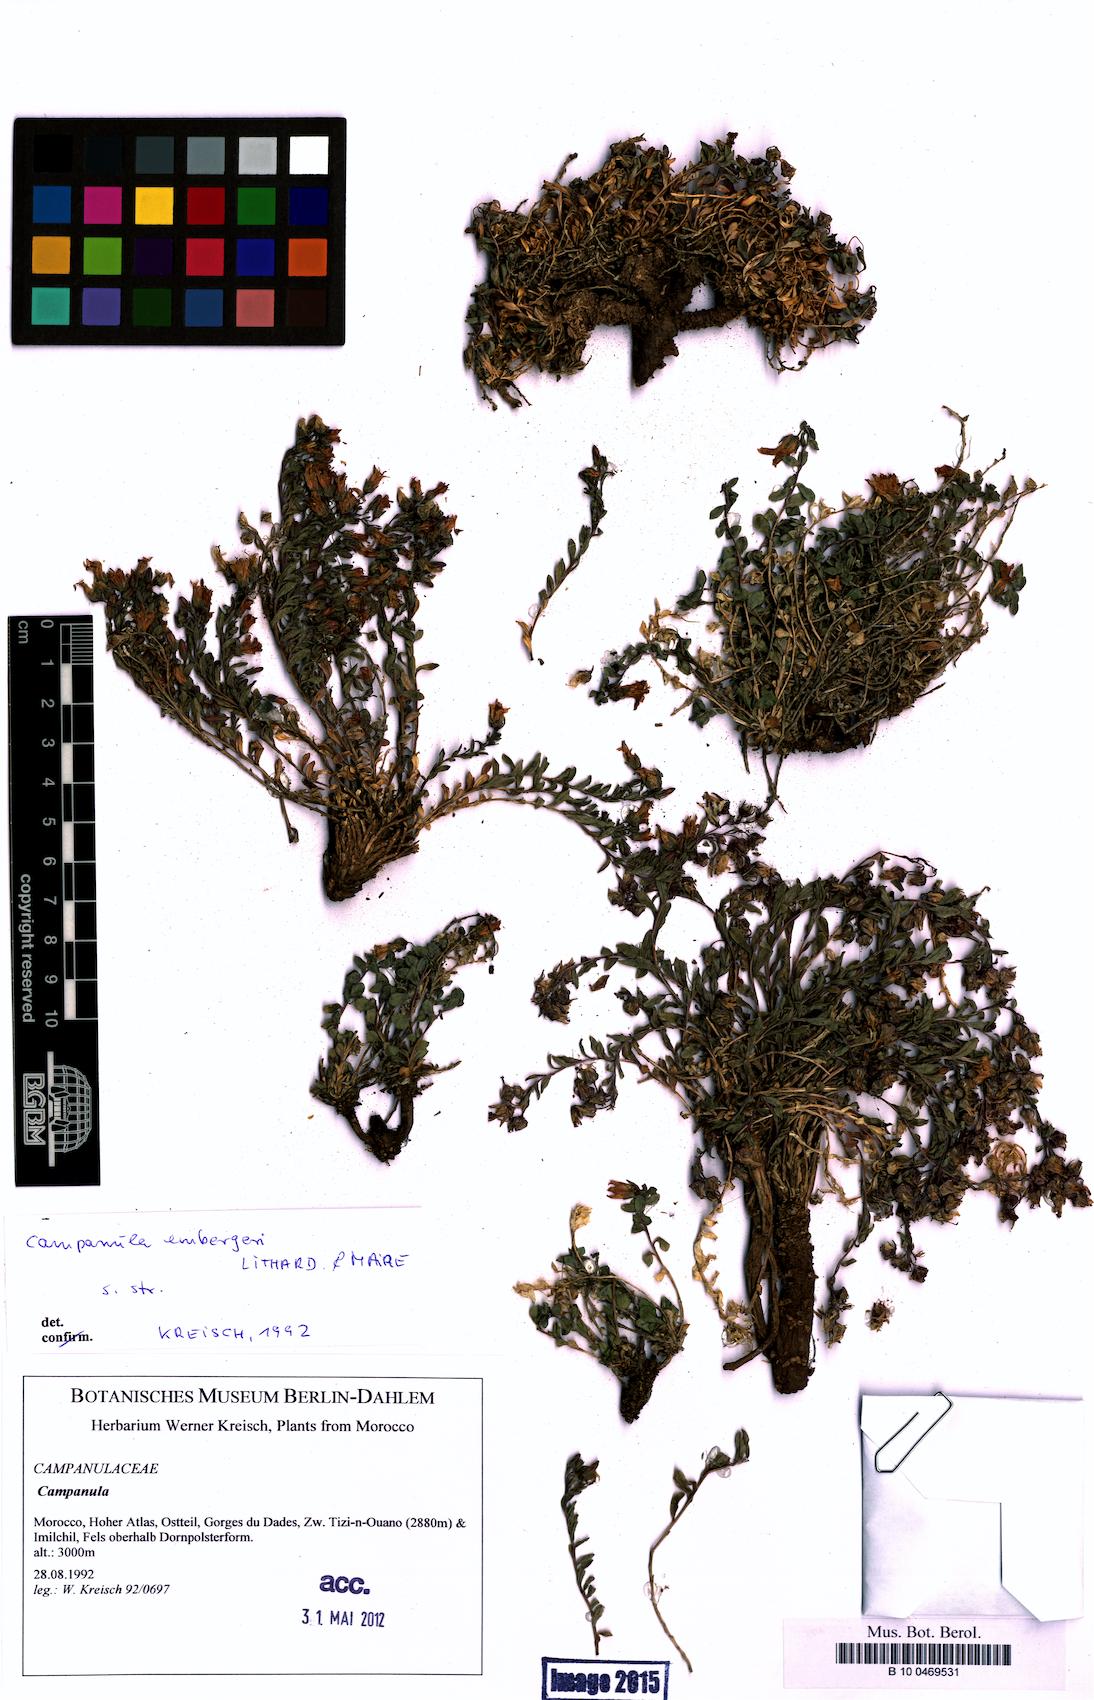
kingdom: Plantae
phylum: Tracheophyta
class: Magnoliopsida
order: Asterales
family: Campanulaceae
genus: Campanula
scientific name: Campanula filicaulis
